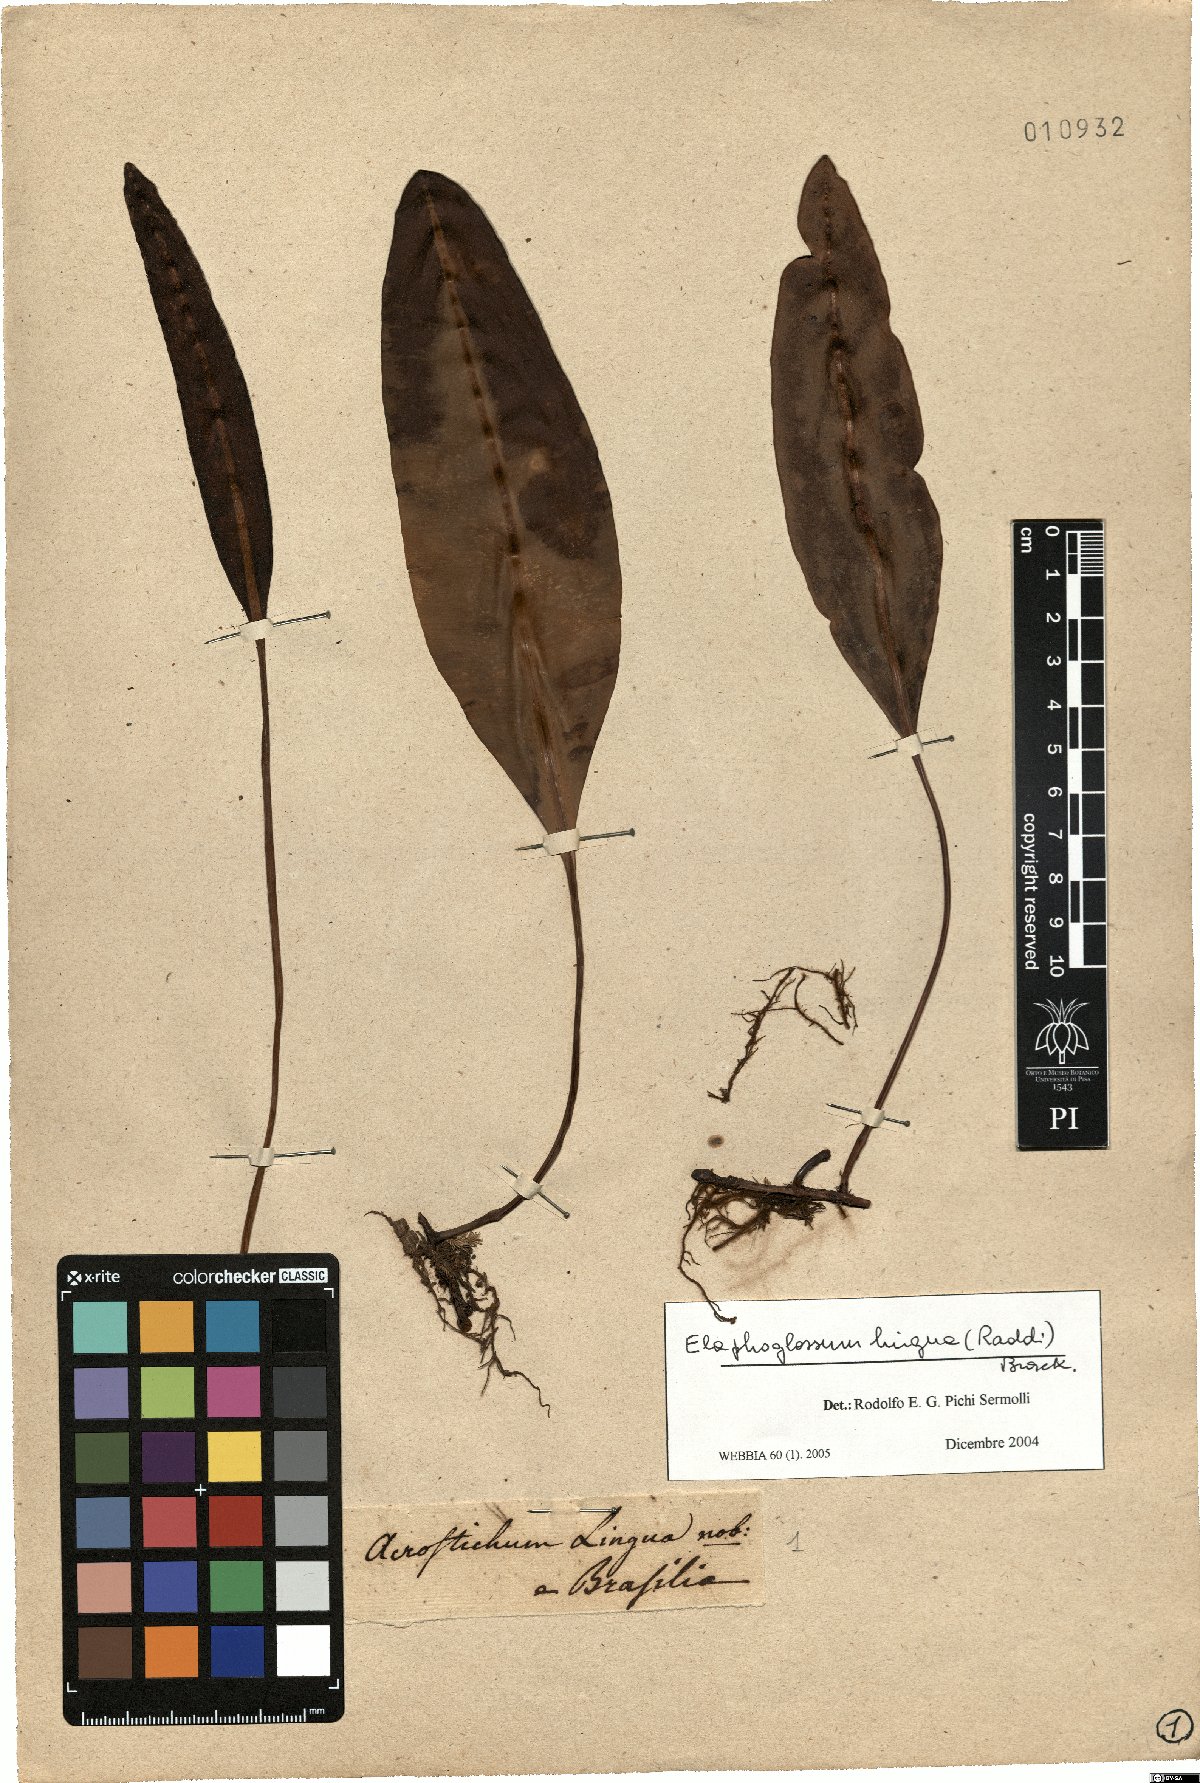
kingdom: Plantae
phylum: Tracheophyta
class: Polypodiopsida
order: Polypodiales
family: Dryopteridaceae
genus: Elaphoglossum
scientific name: Elaphoglossum lingua
